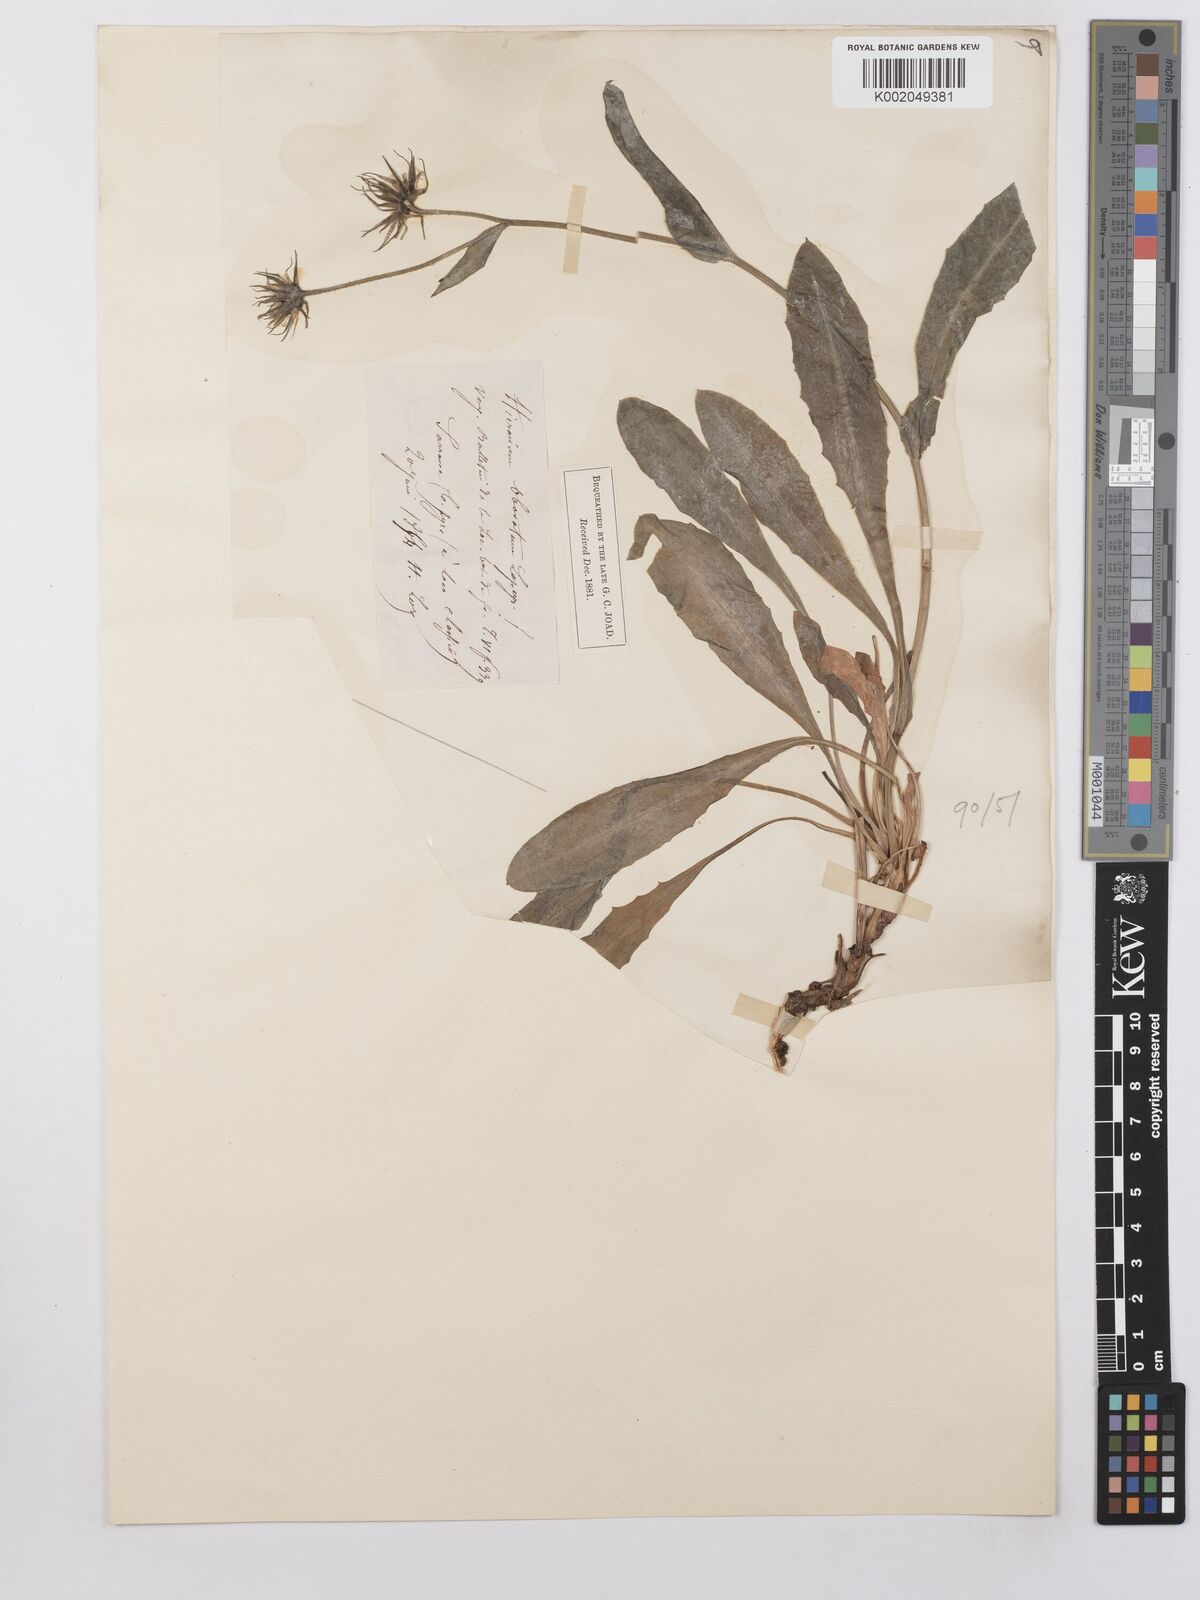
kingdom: Plantae
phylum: Tracheophyta
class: Magnoliopsida
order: Asterales
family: Asteraceae
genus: Hieracium
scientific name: Hieracium cerinthoides
